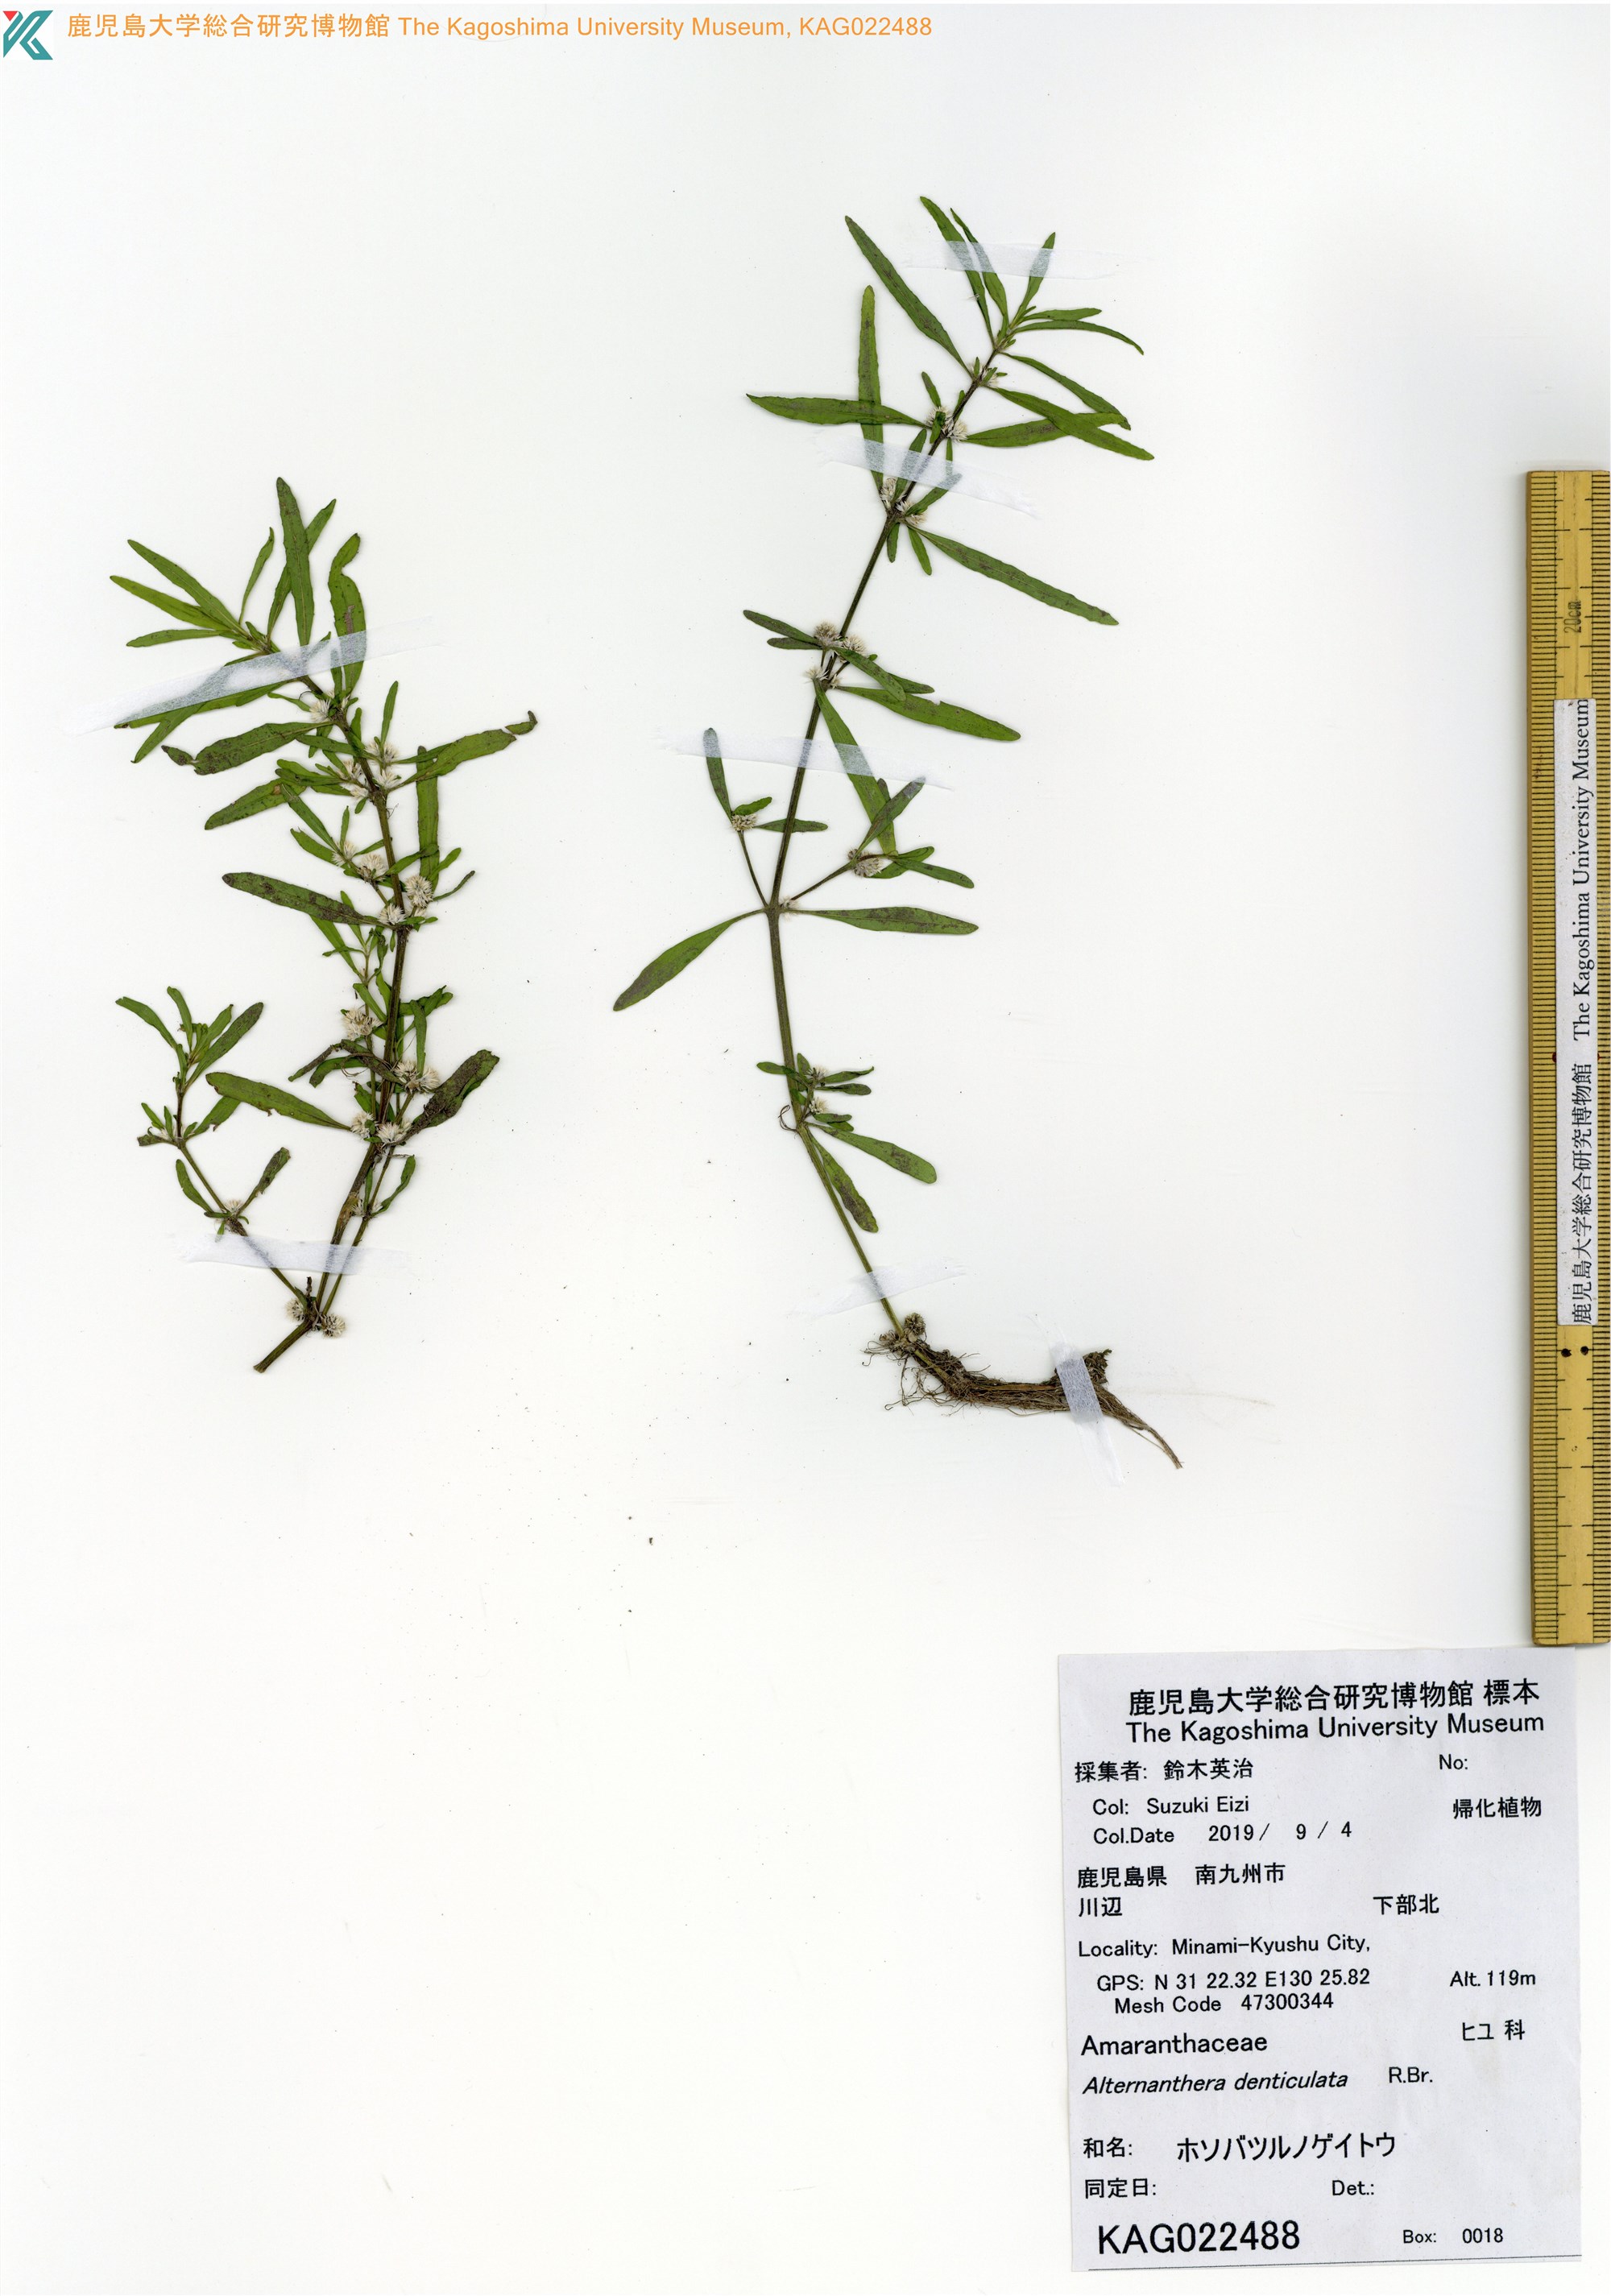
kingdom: Plantae
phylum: Tracheophyta
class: Magnoliopsida
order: Caryophyllales
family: Amaranthaceae
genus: Alternanthera
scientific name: Alternanthera denticulata
